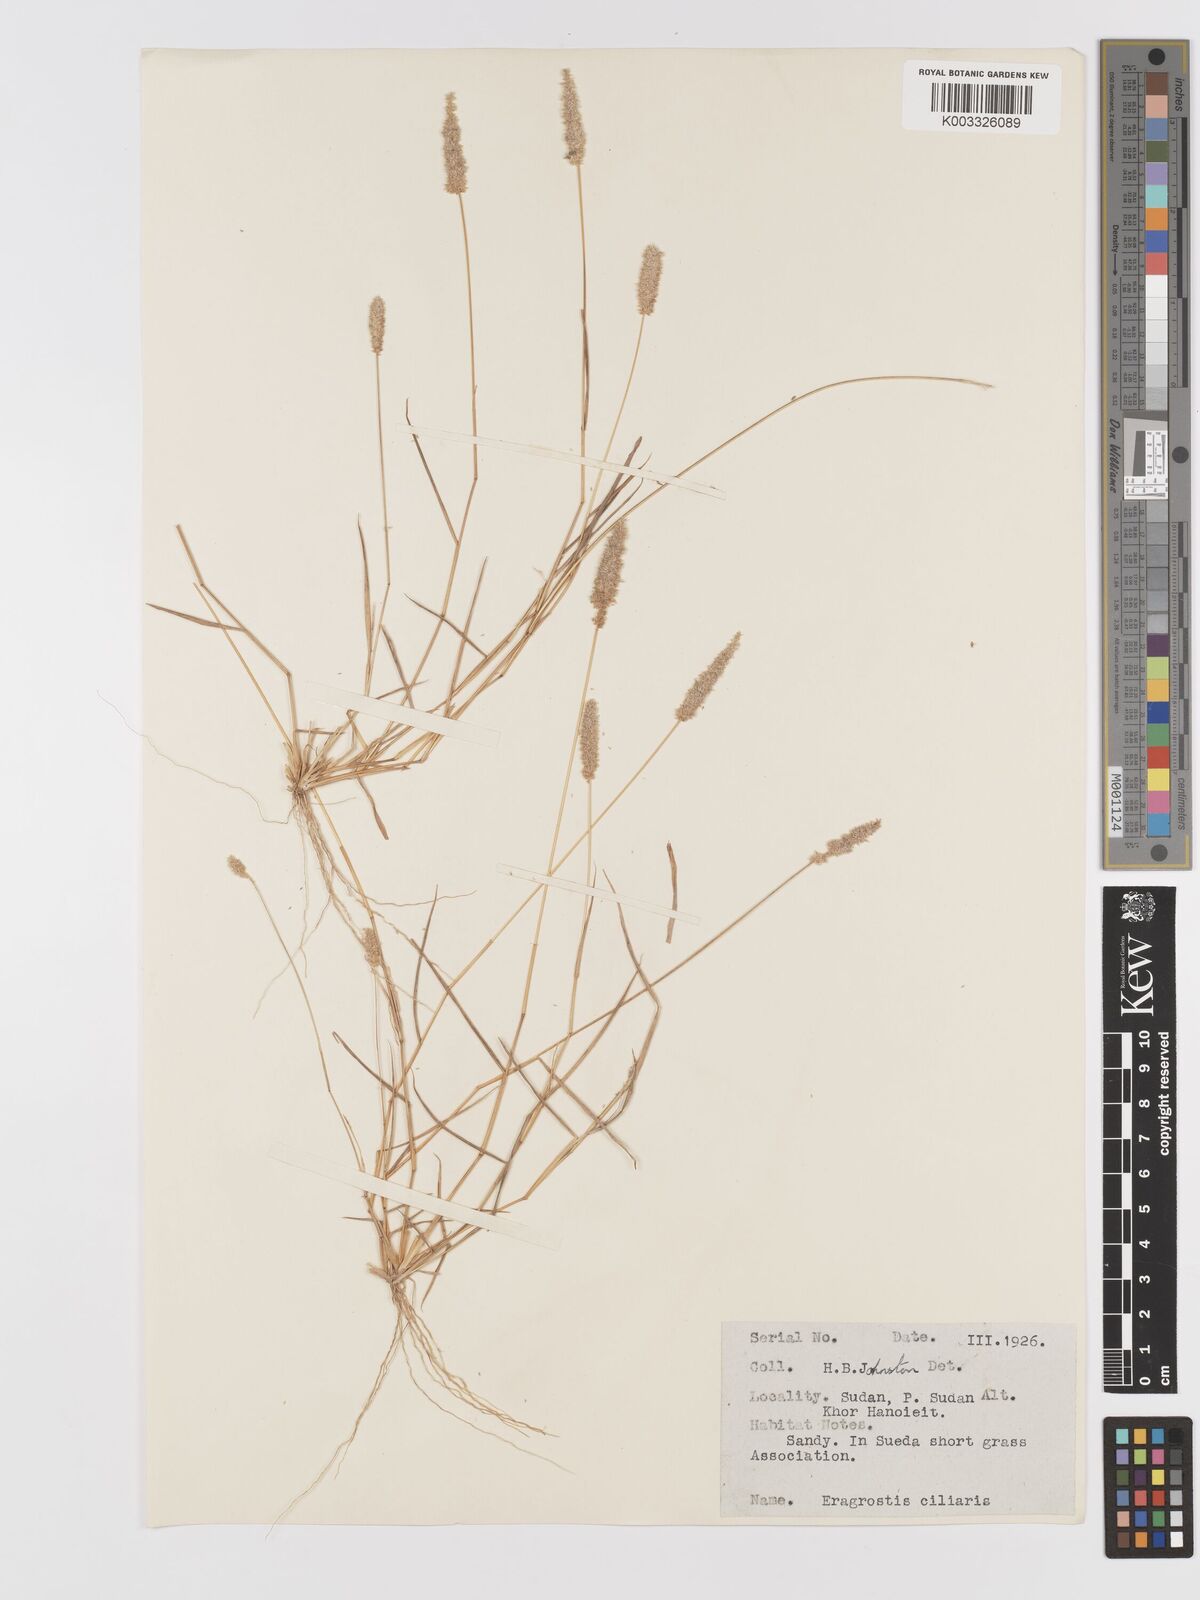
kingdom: Plantae
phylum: Tracheophyta
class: Liliopsida
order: Poales
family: Poaceae
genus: Eragrostis
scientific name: Eragrostis ciliaris
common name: Gophertail lovegrass
